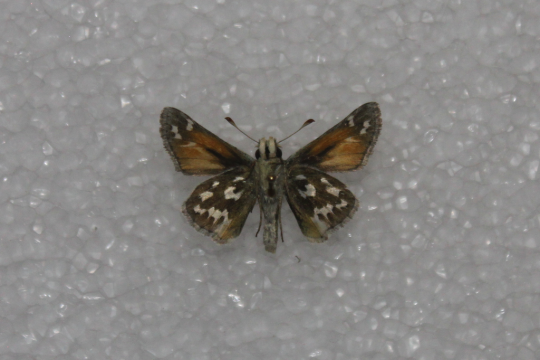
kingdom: Animalia
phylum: Arthropoda
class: Insecta
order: Lepidoptera
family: Hesperiidae
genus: Hesperia
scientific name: Hesperia nevada
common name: Nevada Skipper
